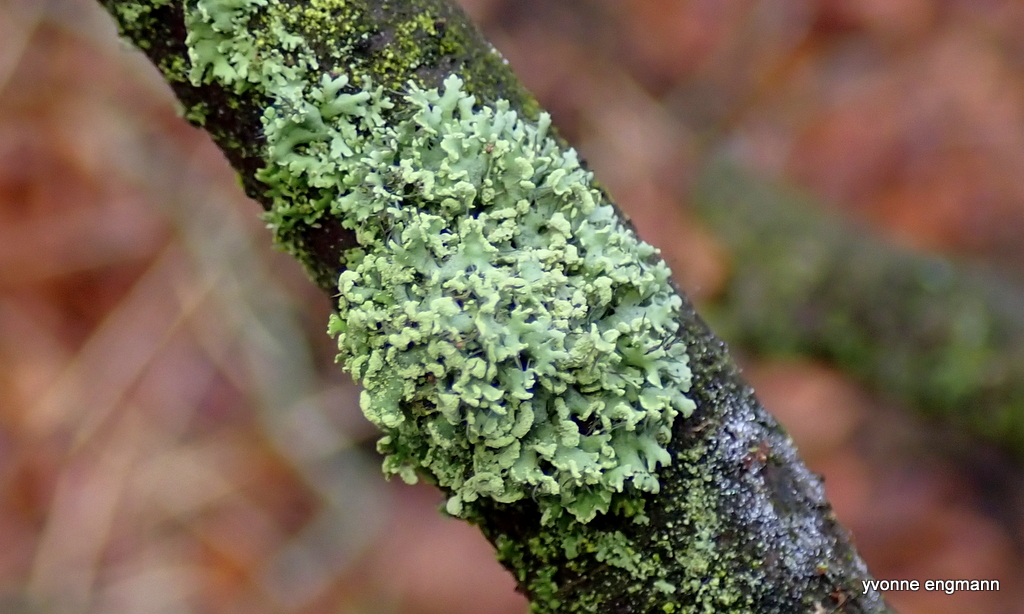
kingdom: Fungi
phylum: Ascomycota
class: Lecanoromycetes
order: Caliciales
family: Physciaceae
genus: Physcia
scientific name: Physcia tenella
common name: spæd rosetlav
